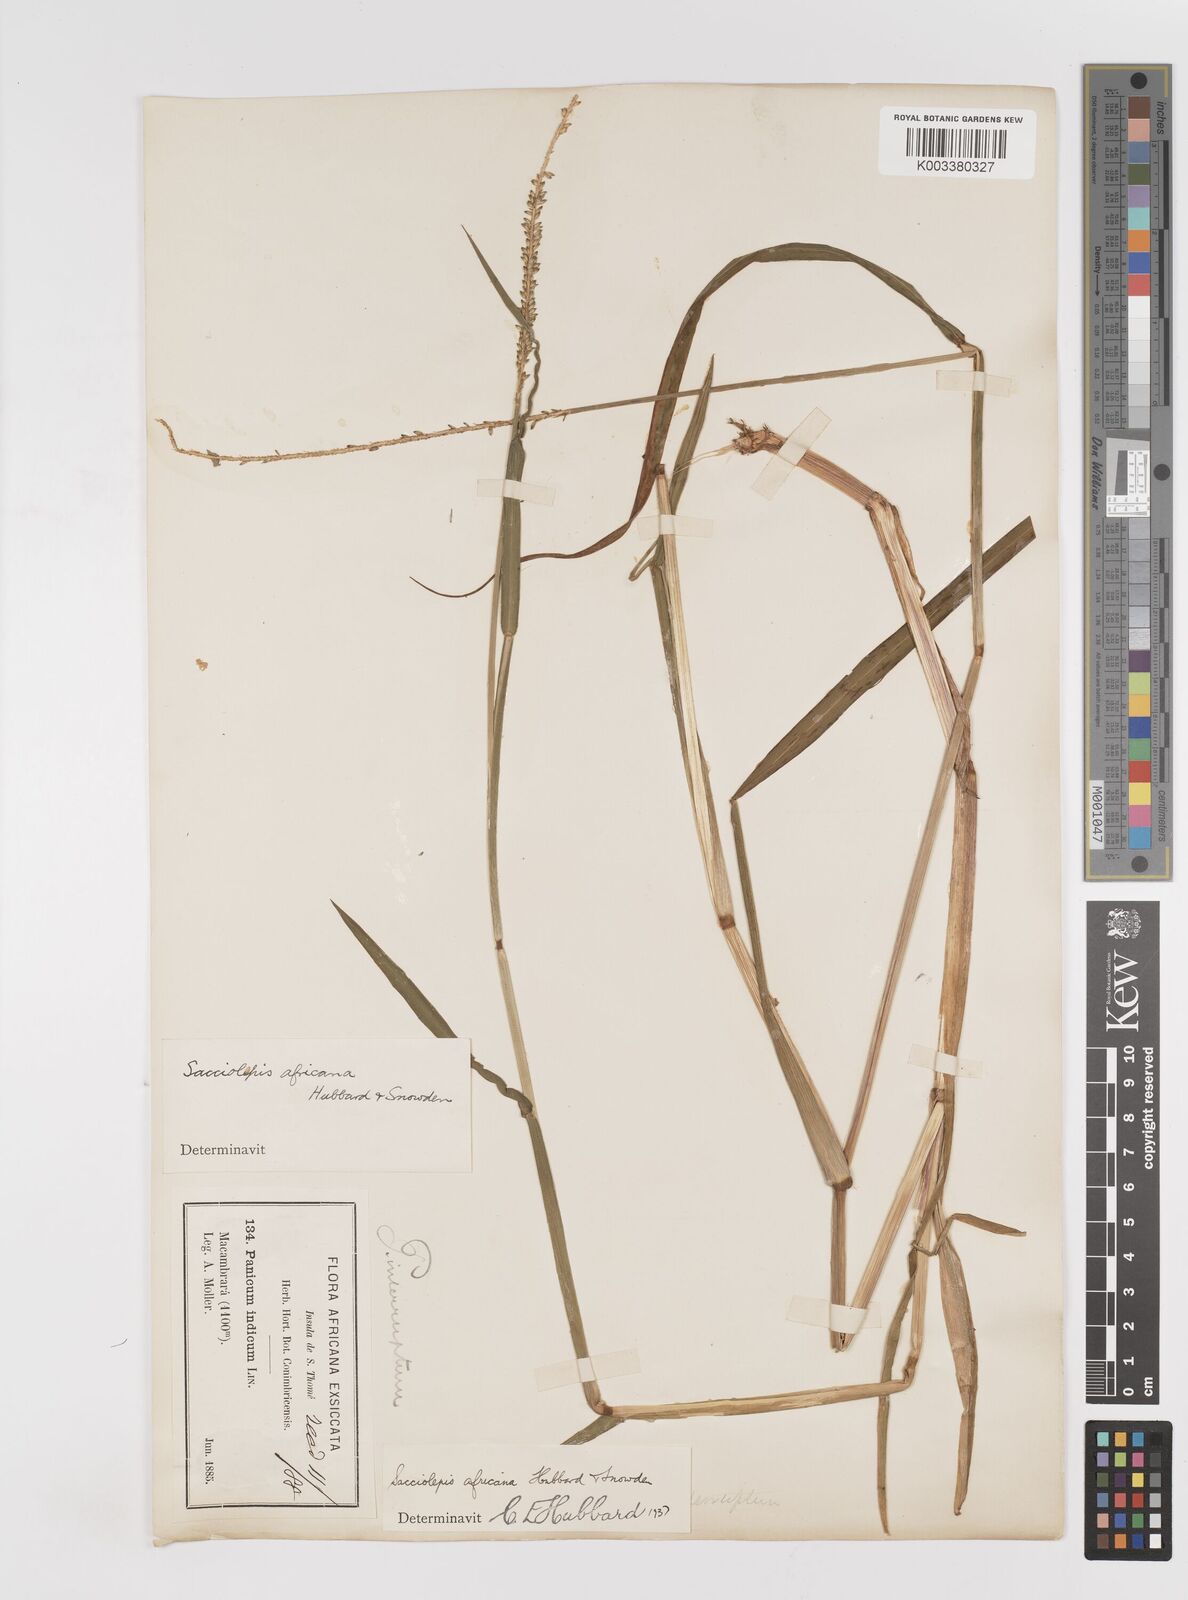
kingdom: Plantae
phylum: Tracheophyta
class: Liliopsida
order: Poales
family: Poaceae
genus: Sacciolepis
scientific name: Sacciolepis africana
